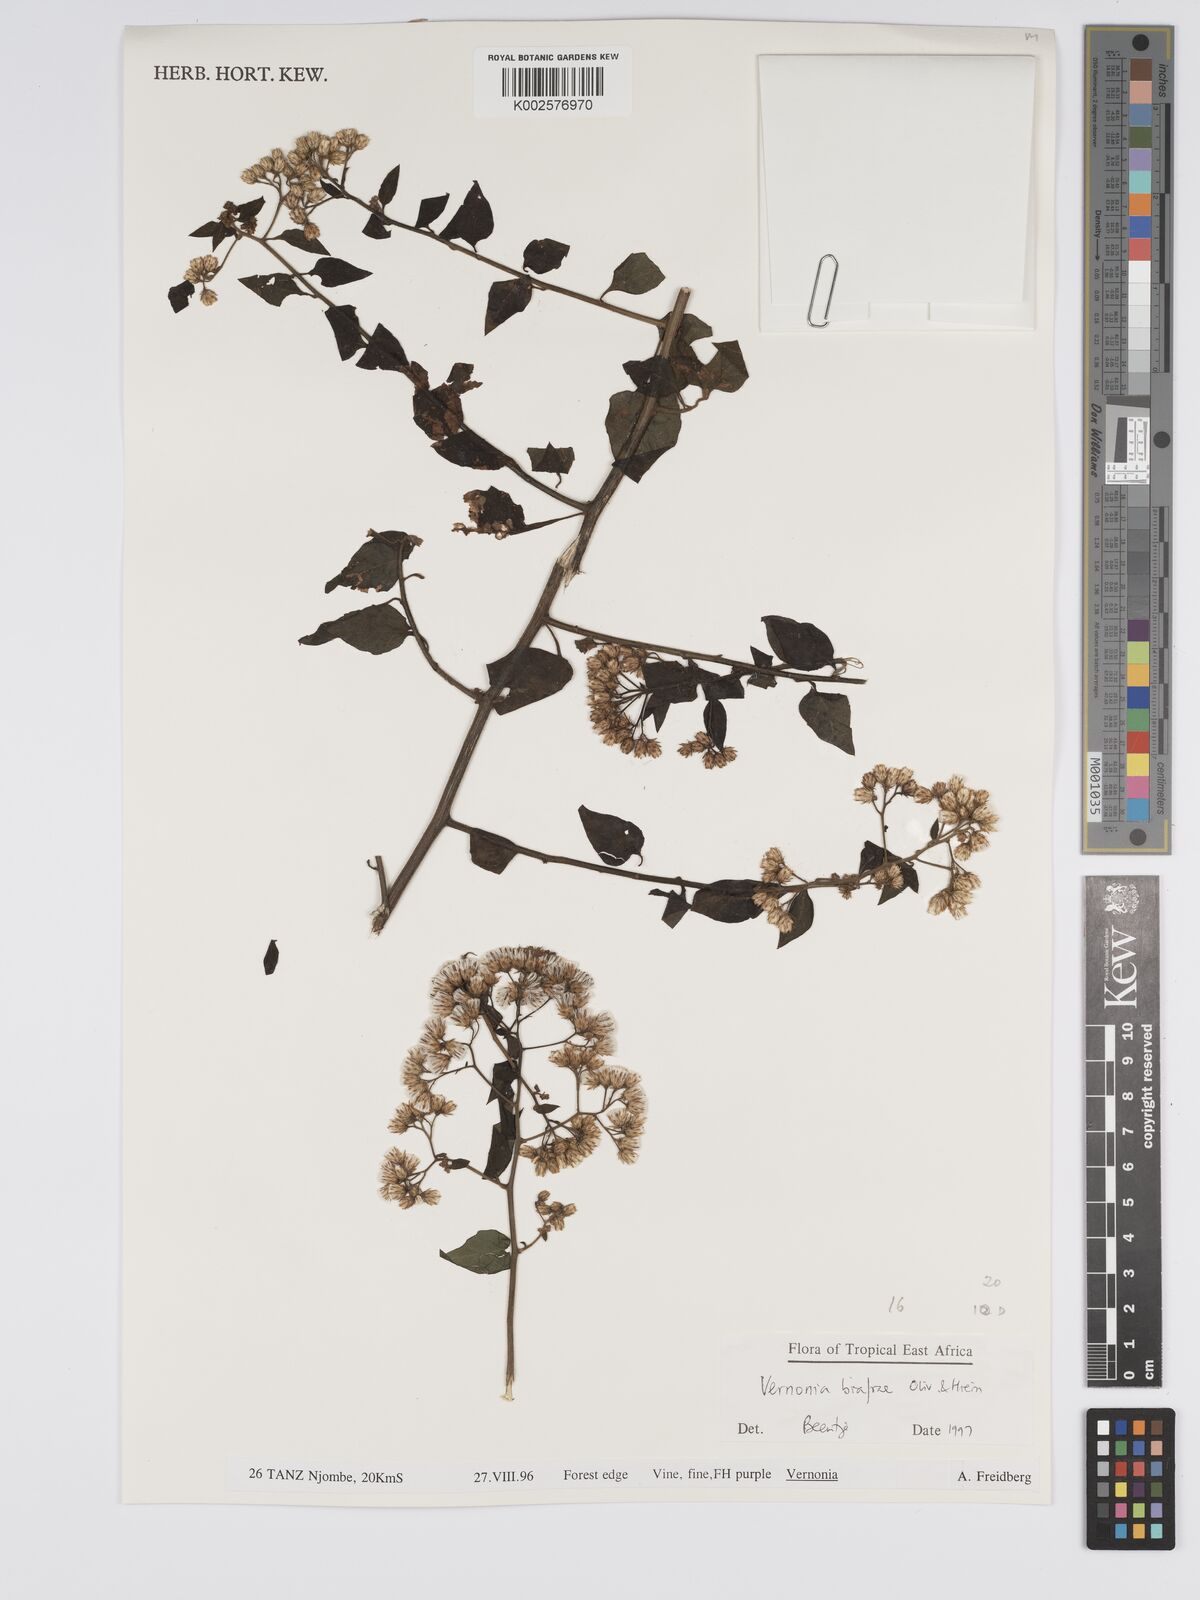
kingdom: Plantae
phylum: Tracheophyta
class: Magnoliopsida
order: Asterales
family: Asteraceae
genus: Distephanus
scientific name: Distephanus biafrae
